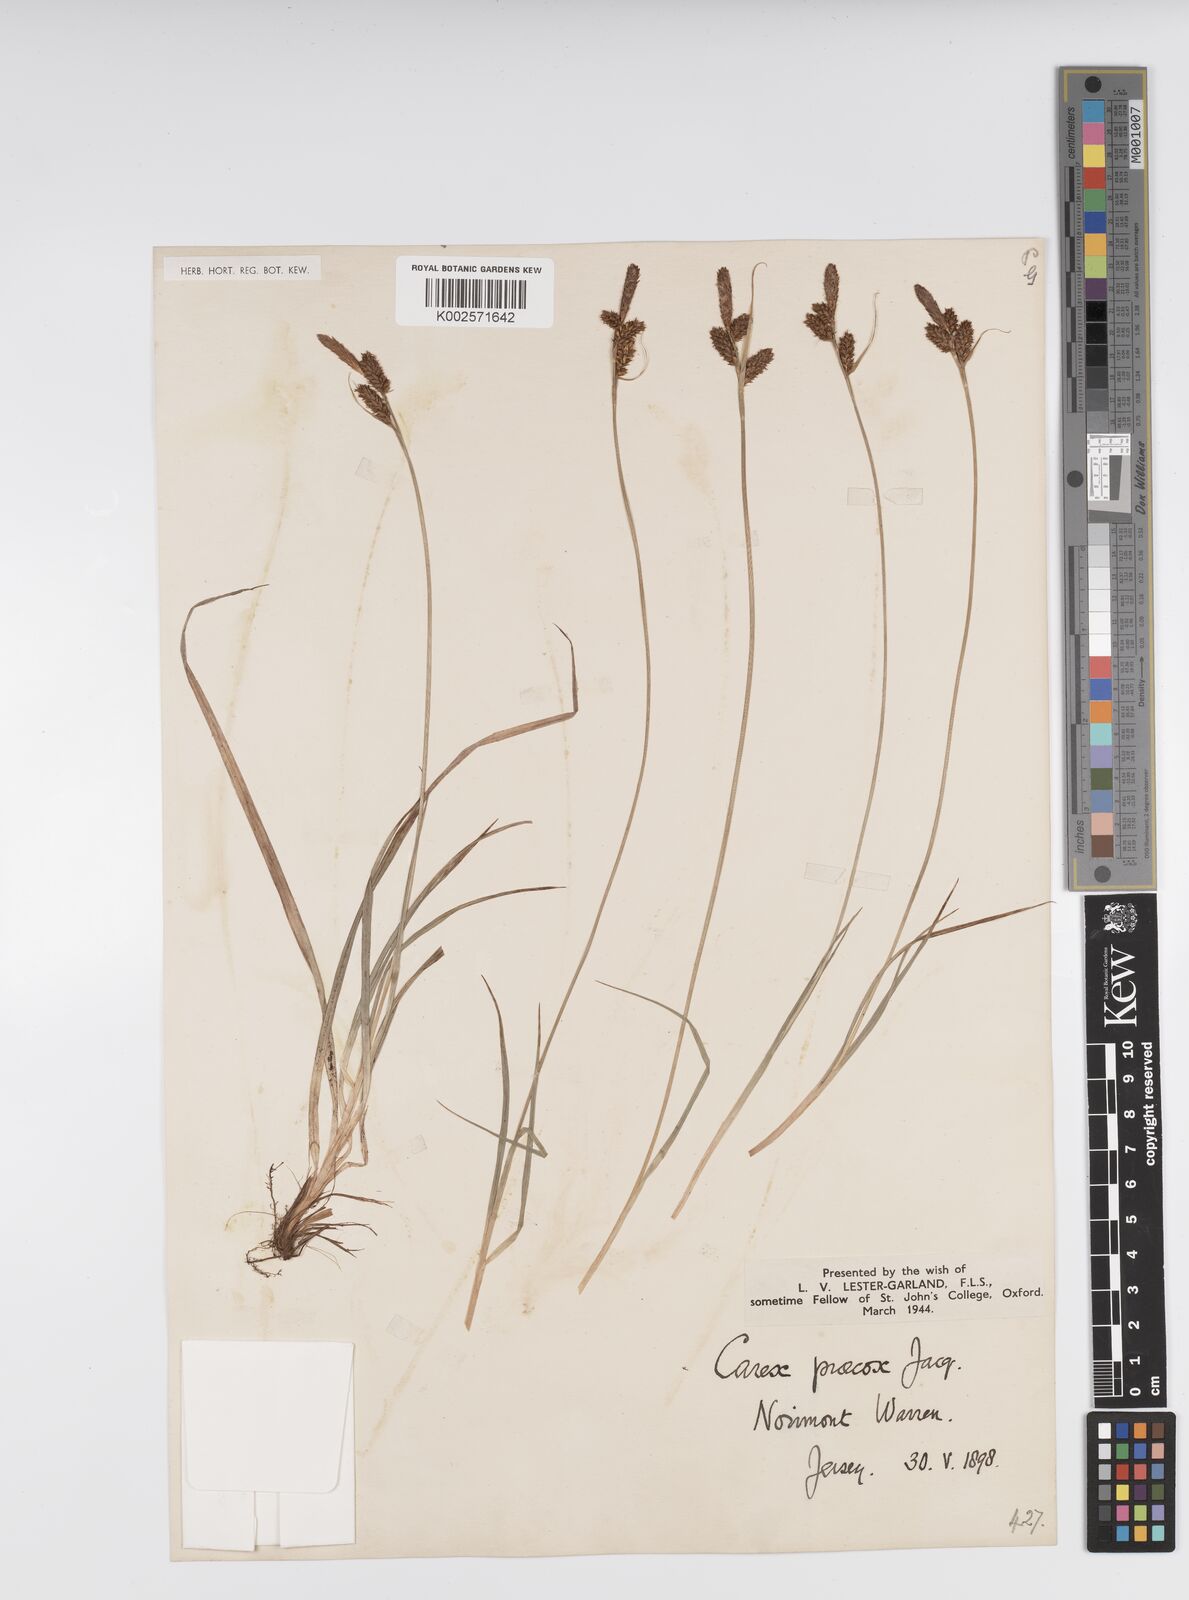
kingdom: Plantae
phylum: Tracheophyta
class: Liliopsida
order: Poales
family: Cyperaceae
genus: Carex
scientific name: Carex caryophyllea
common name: Spring sedge
